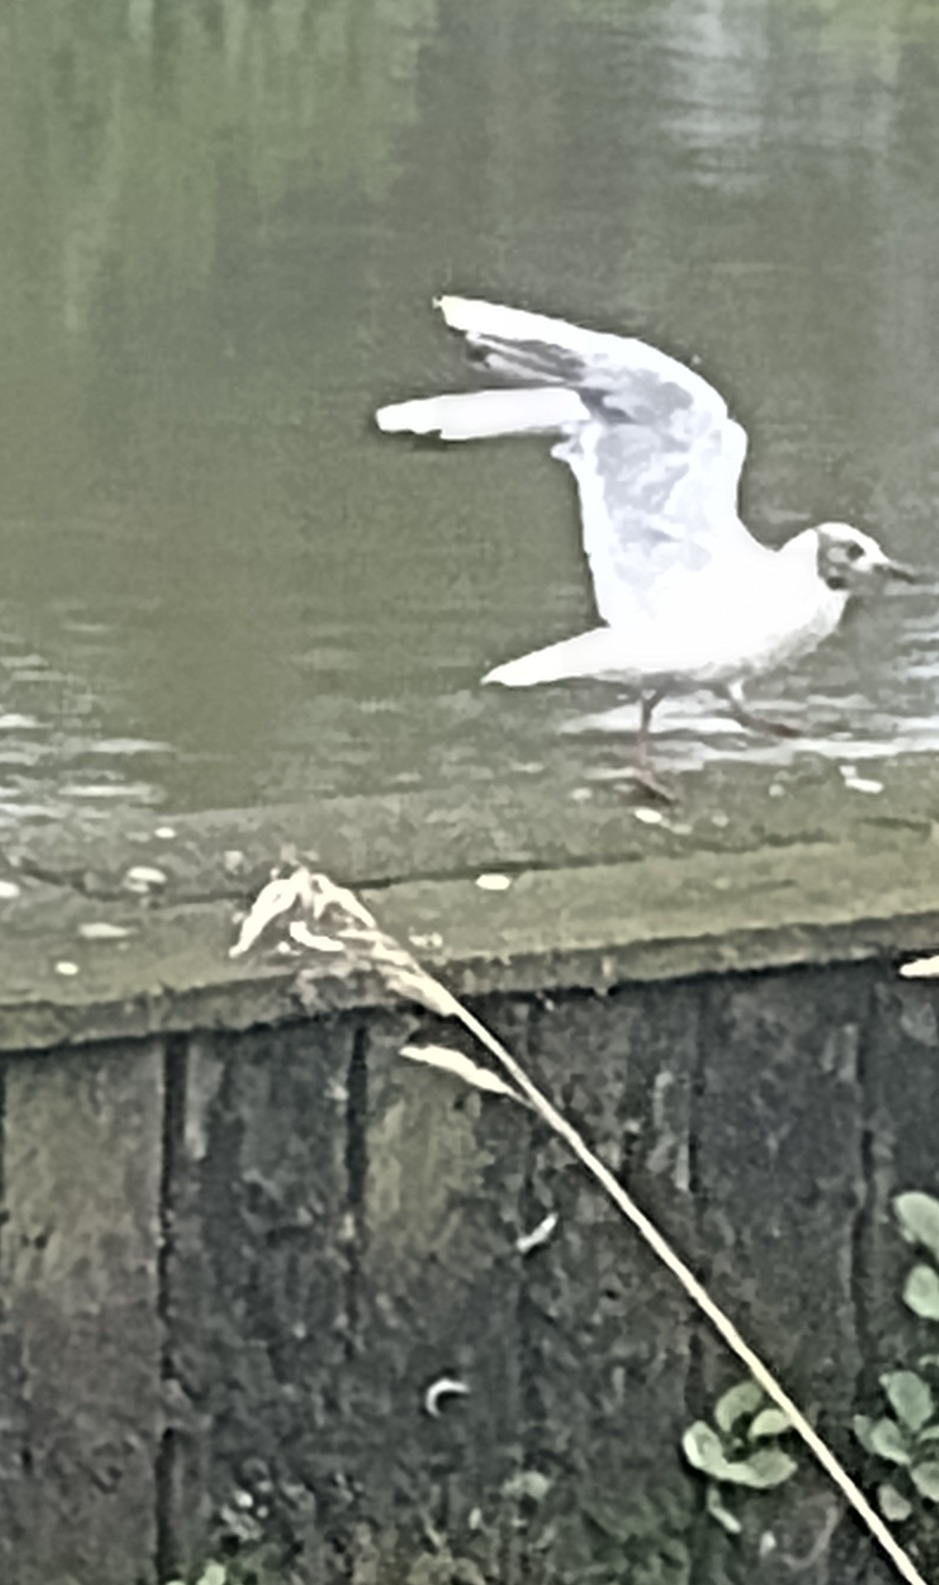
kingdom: Animalia
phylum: Chordata
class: Aves
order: Charadriiformes
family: Laridae
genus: Chroicocephalus
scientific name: Chroicocephalus ridibundus
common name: Hættemåge
